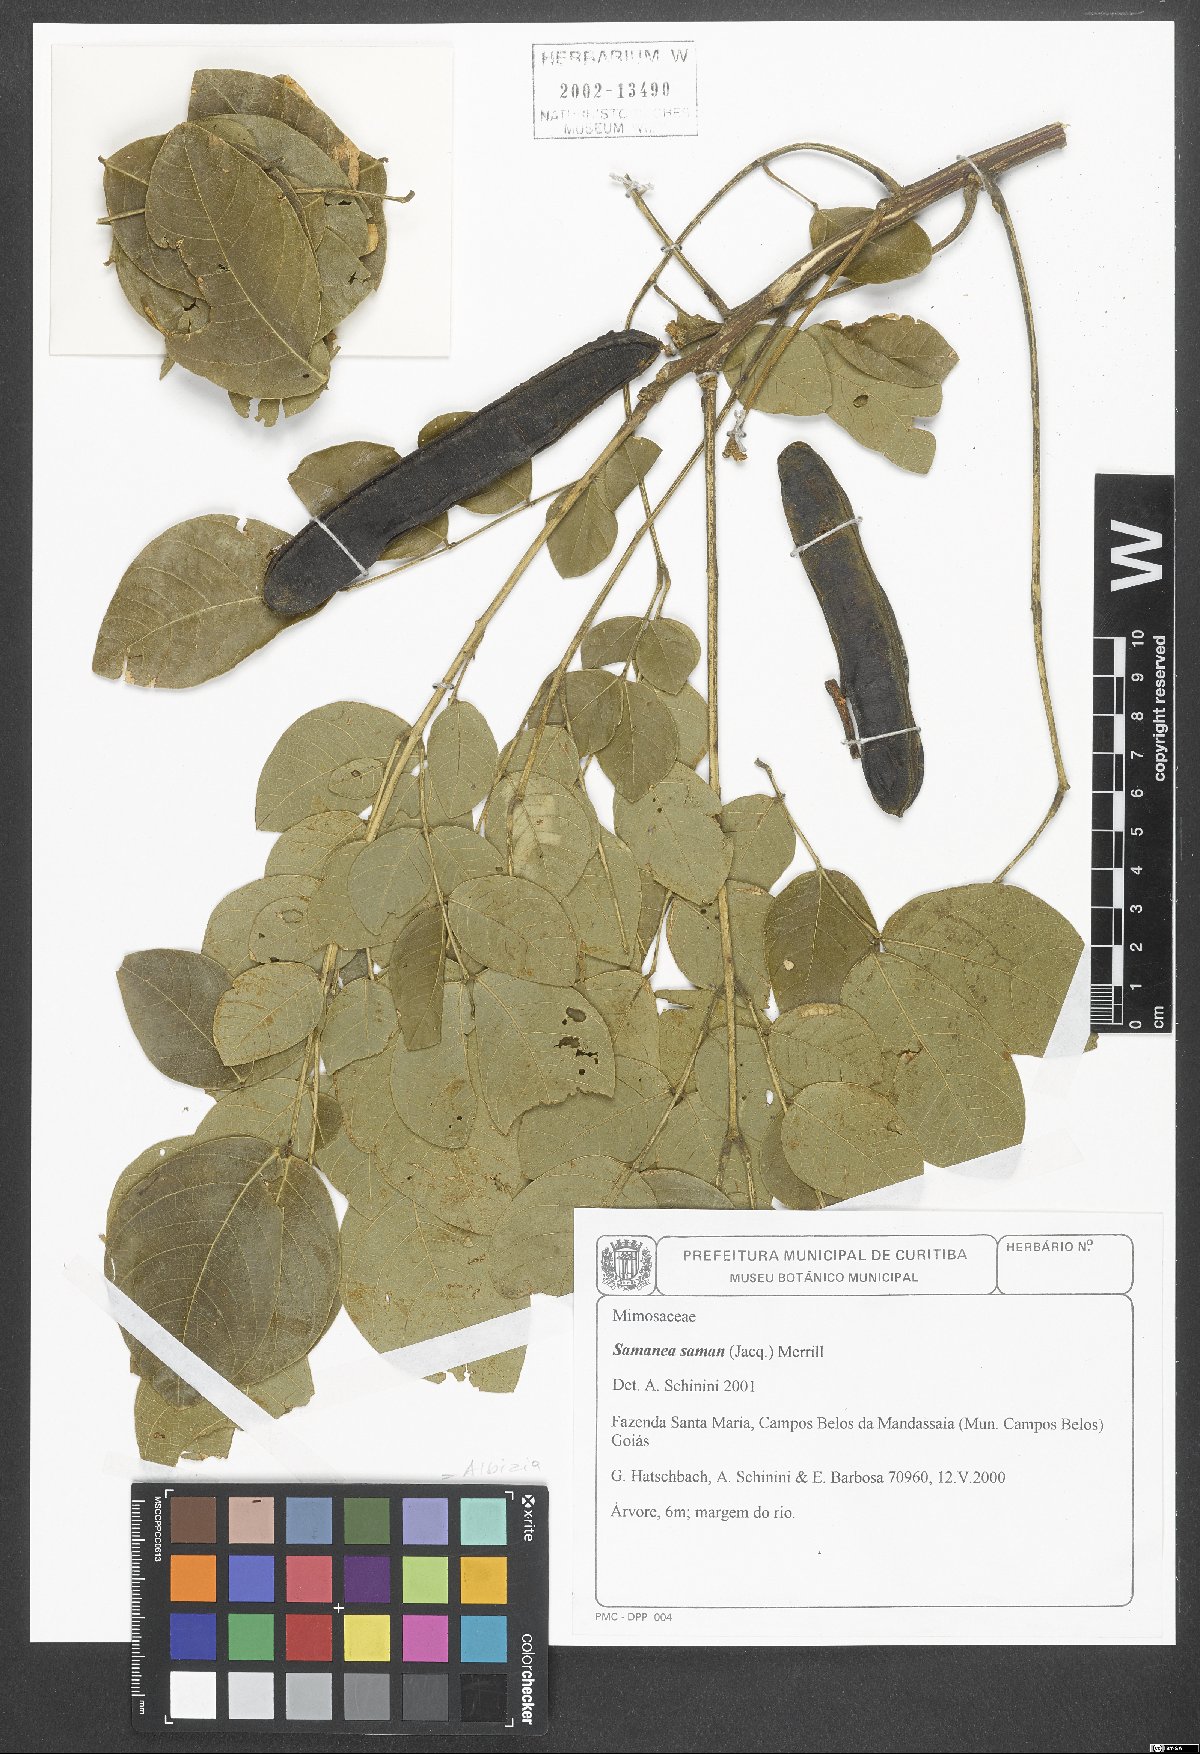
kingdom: Plantae
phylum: Tracheophyta
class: Magnoliopsida
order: Fabales
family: Fabaceae
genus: Samanea
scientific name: Samanea saman
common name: Raintree
